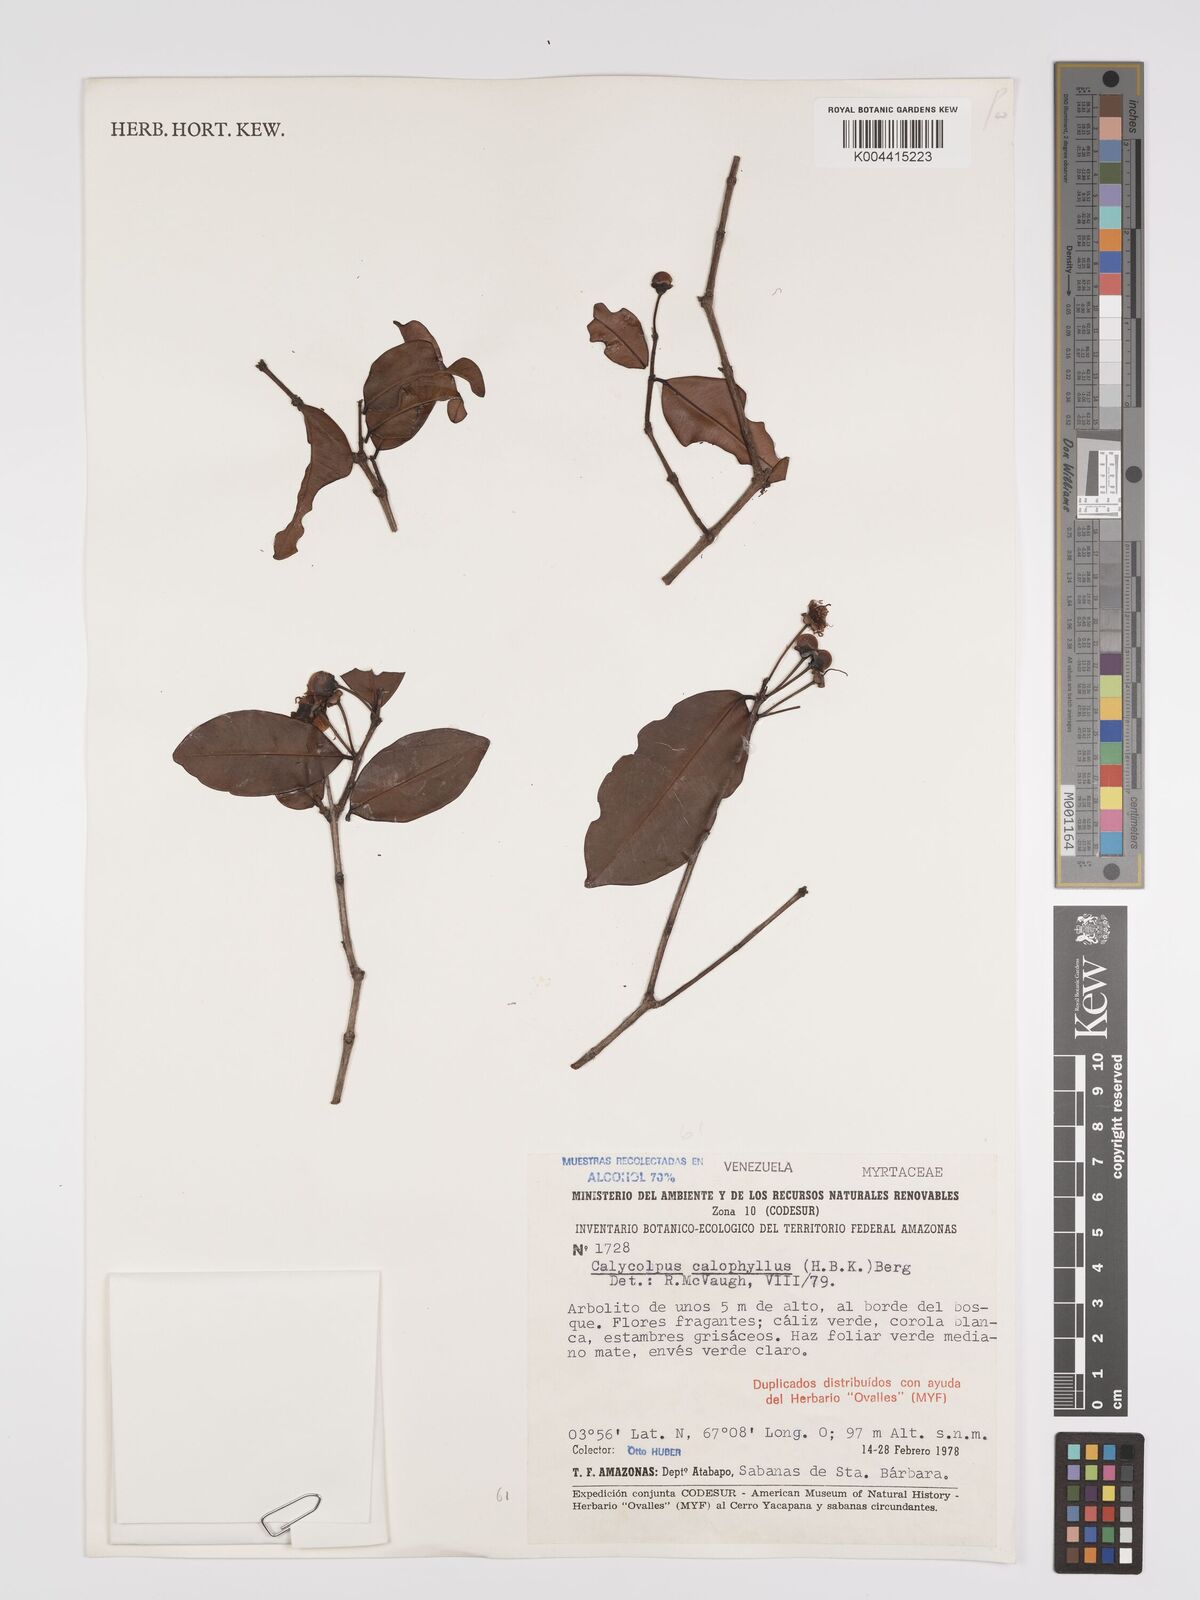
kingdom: Plantae
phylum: Tracheophyta
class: Magnoliopsida
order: Myrtales
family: Myrtaceae
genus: Calycolpus
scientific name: Calycolpus calophyllus
